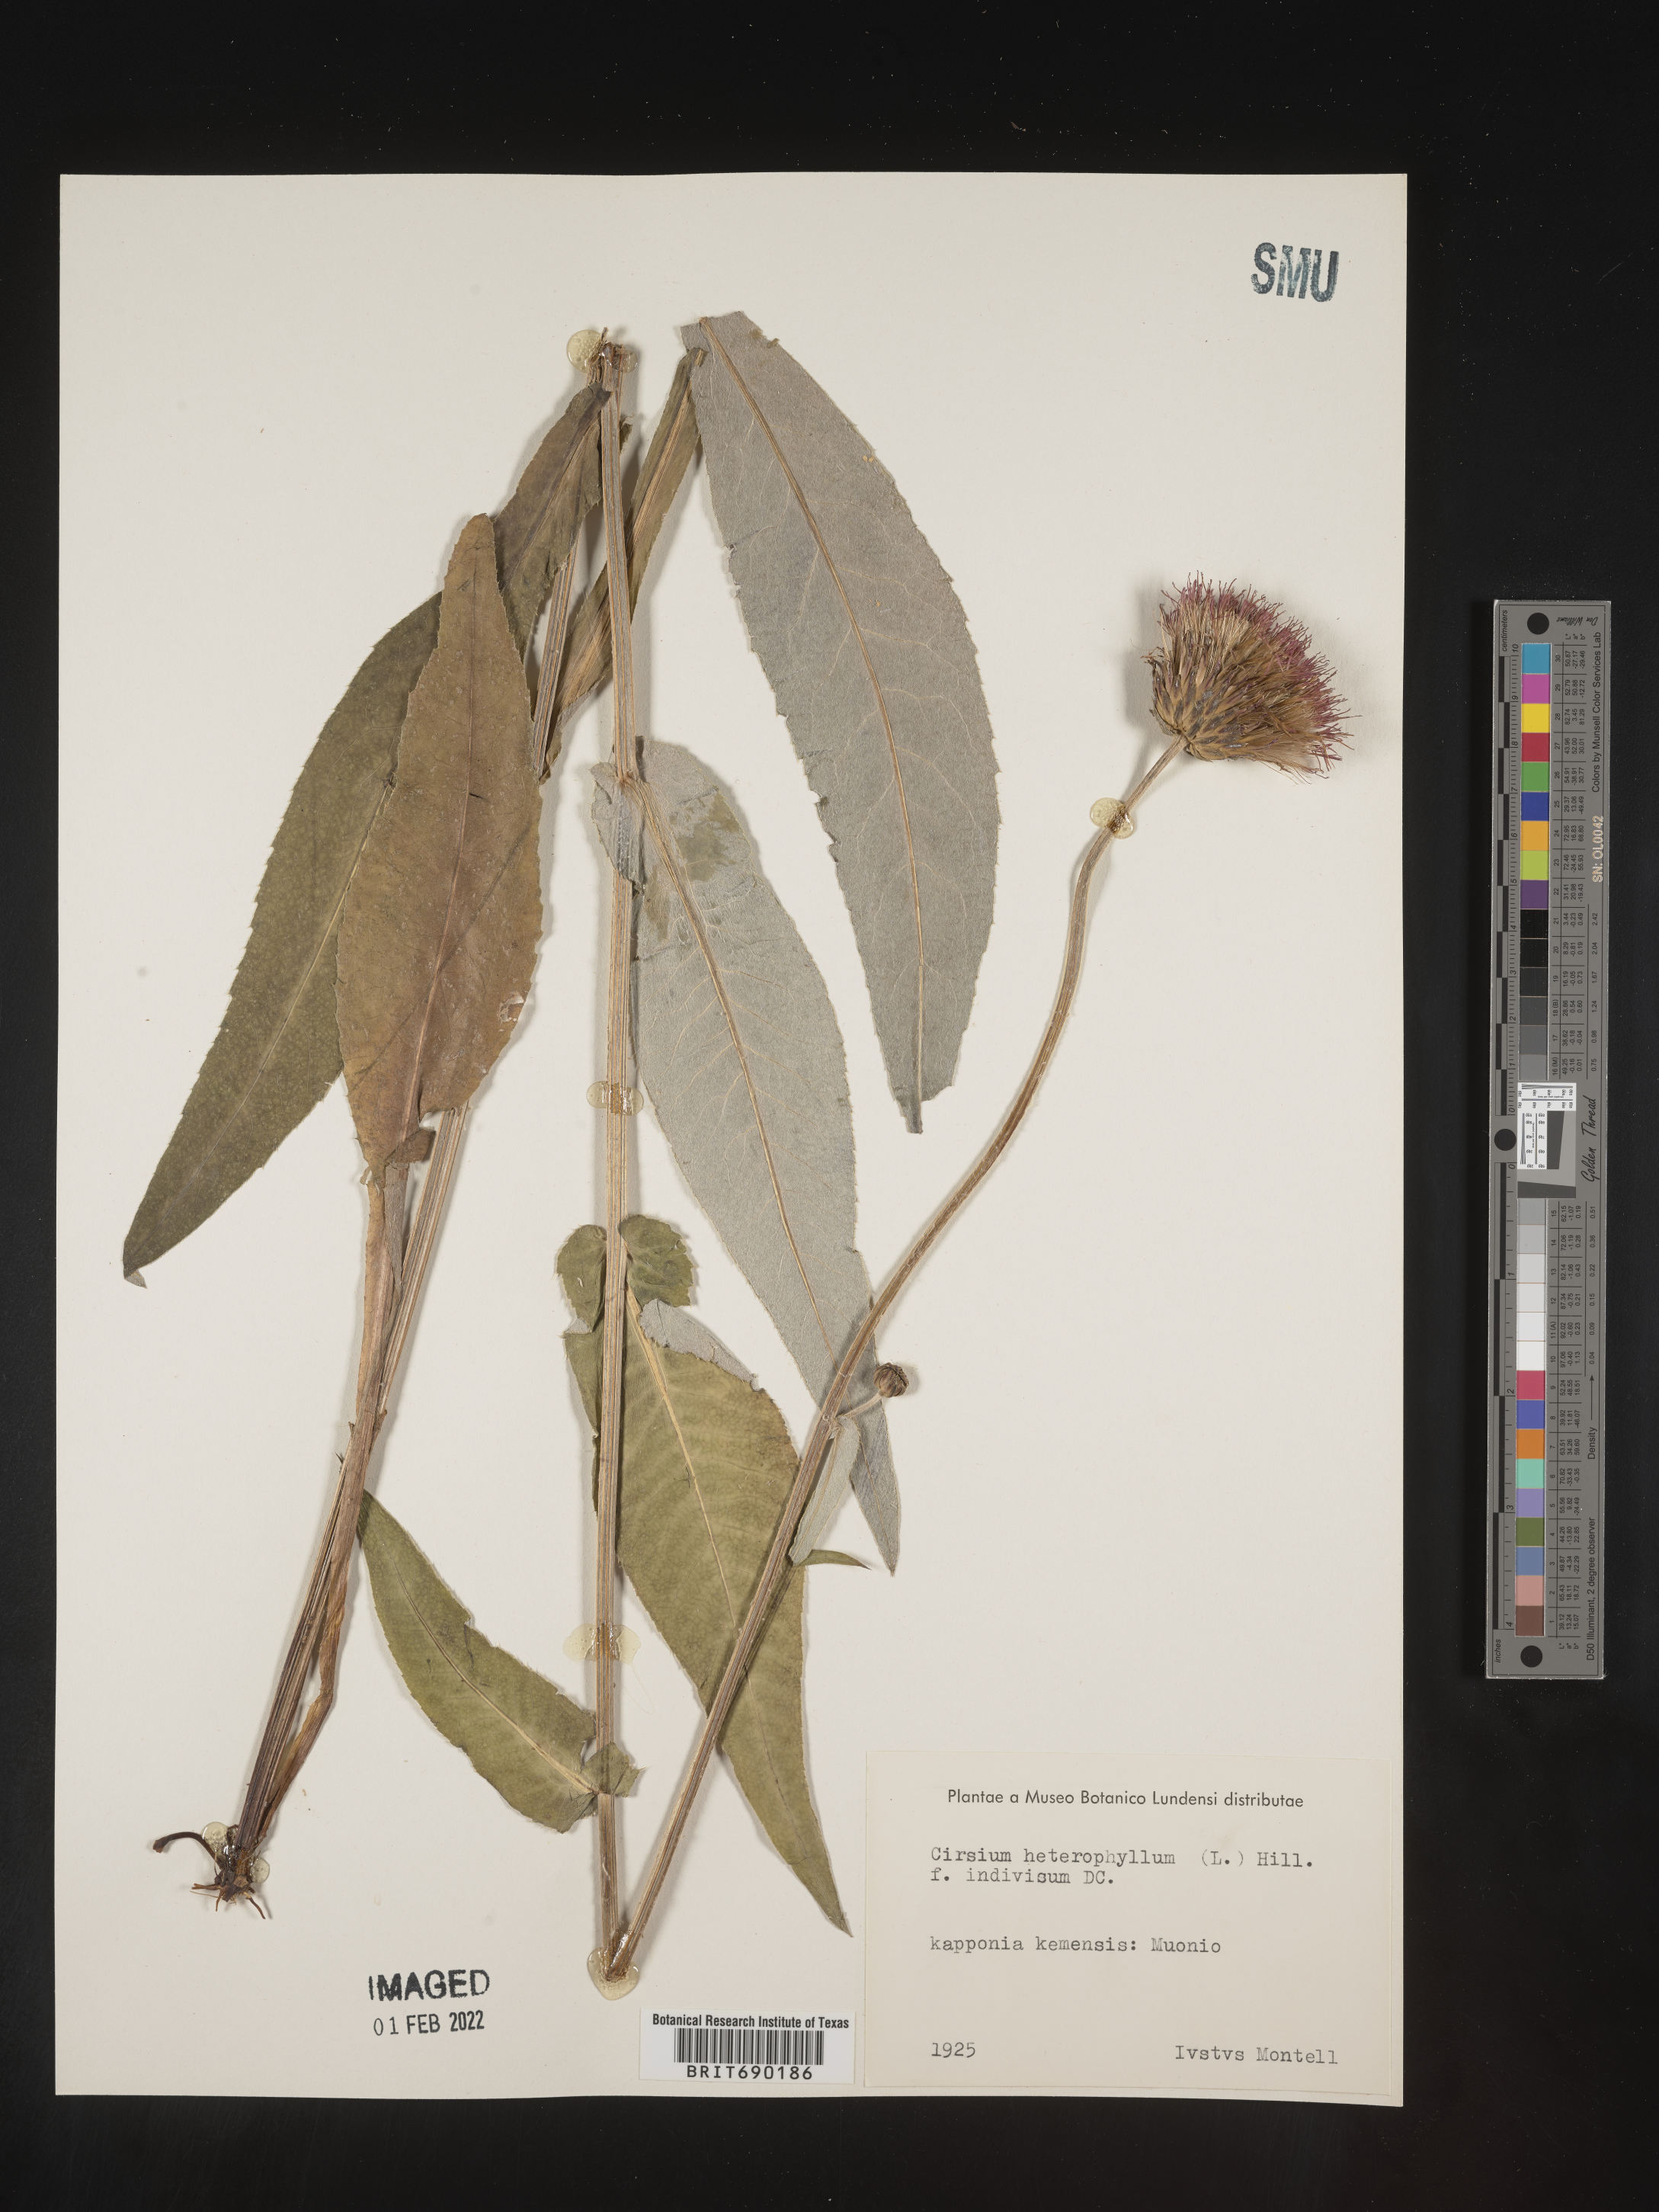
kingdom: Plantae
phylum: Tracheophyta
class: Magnoliopsida
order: Asterales
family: Asteraceae
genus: Cirsium
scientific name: Cirsium
